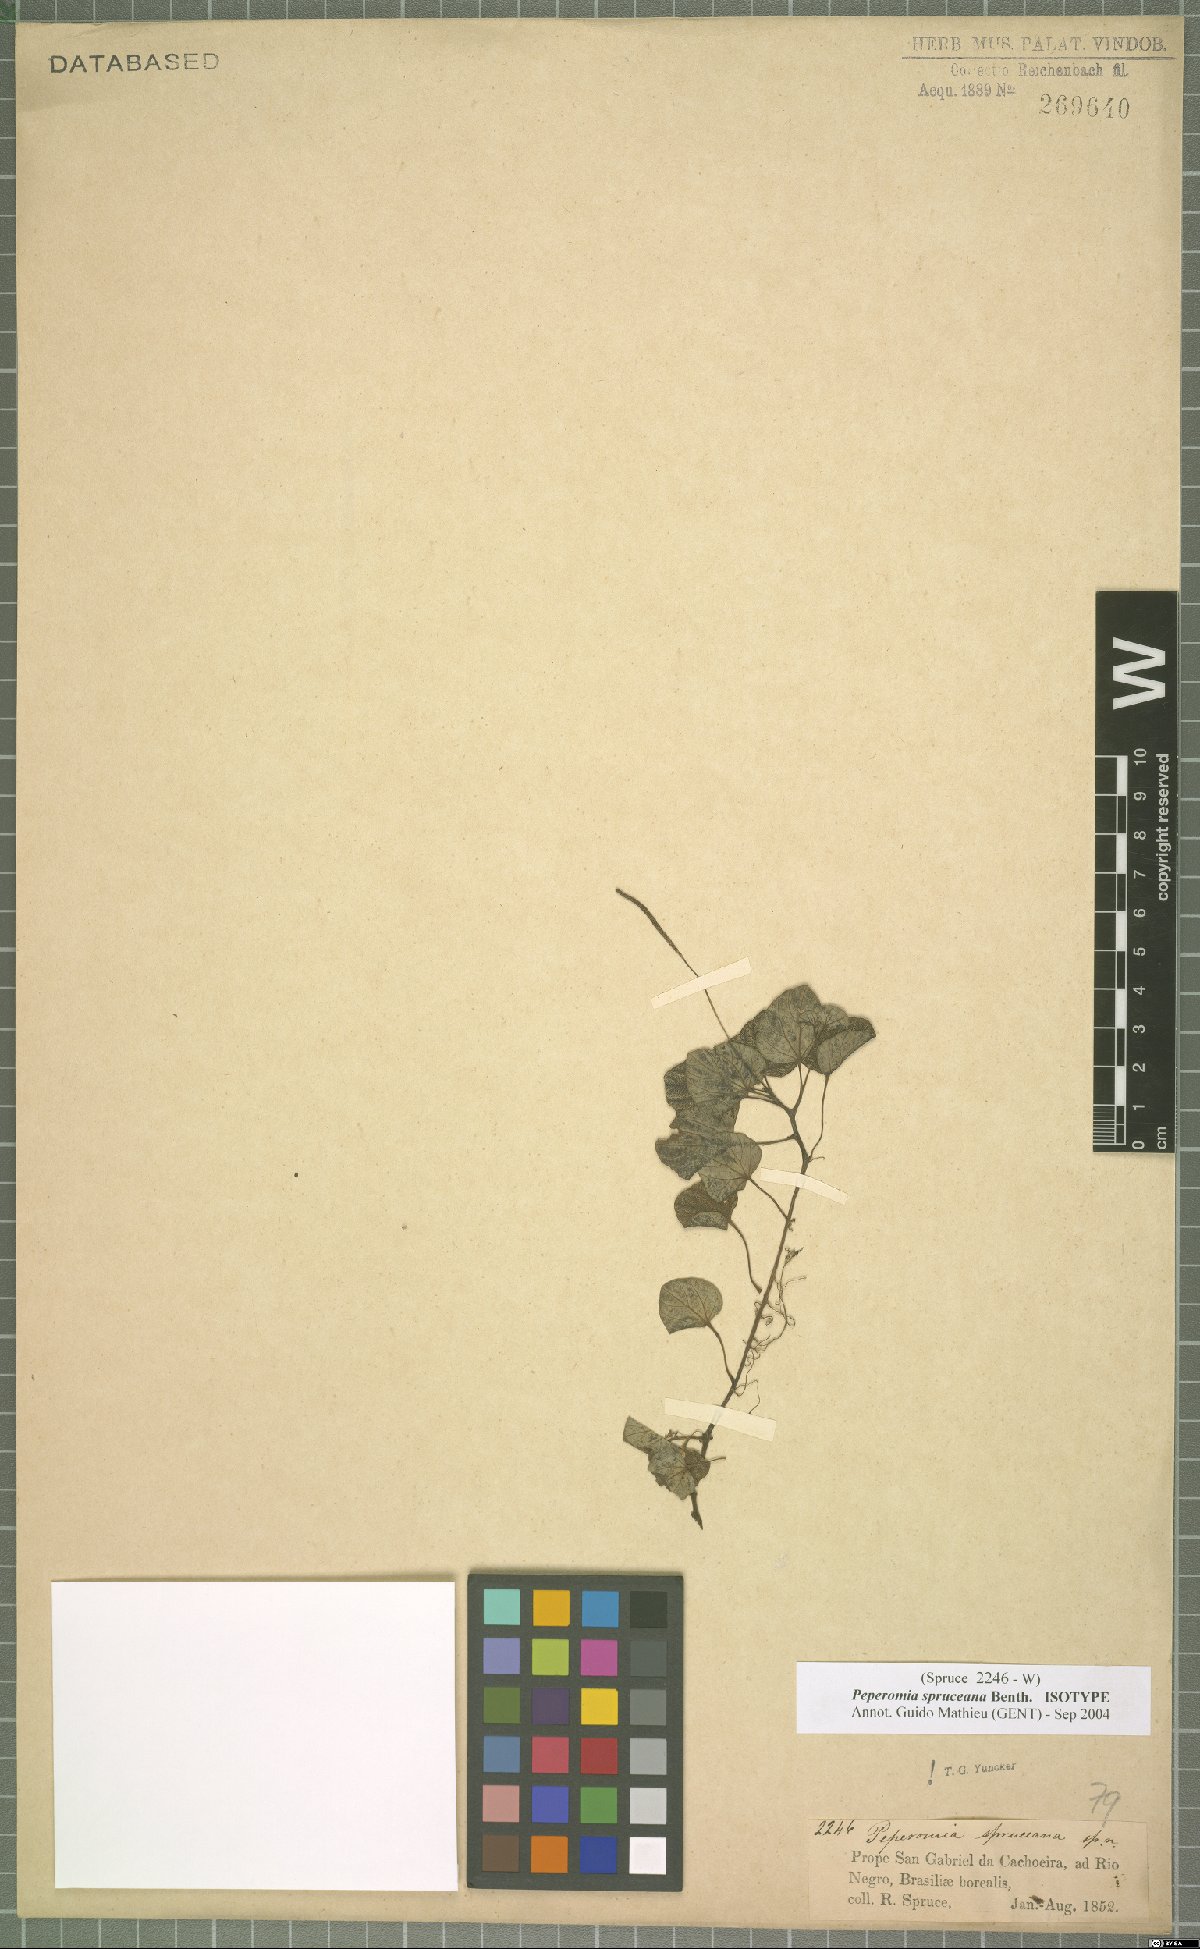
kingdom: Plantae
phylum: Tracheophyta
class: Magnoliopsida
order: Piperales
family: Piperaceae
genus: Peperomia
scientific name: Peperomia spruceana
